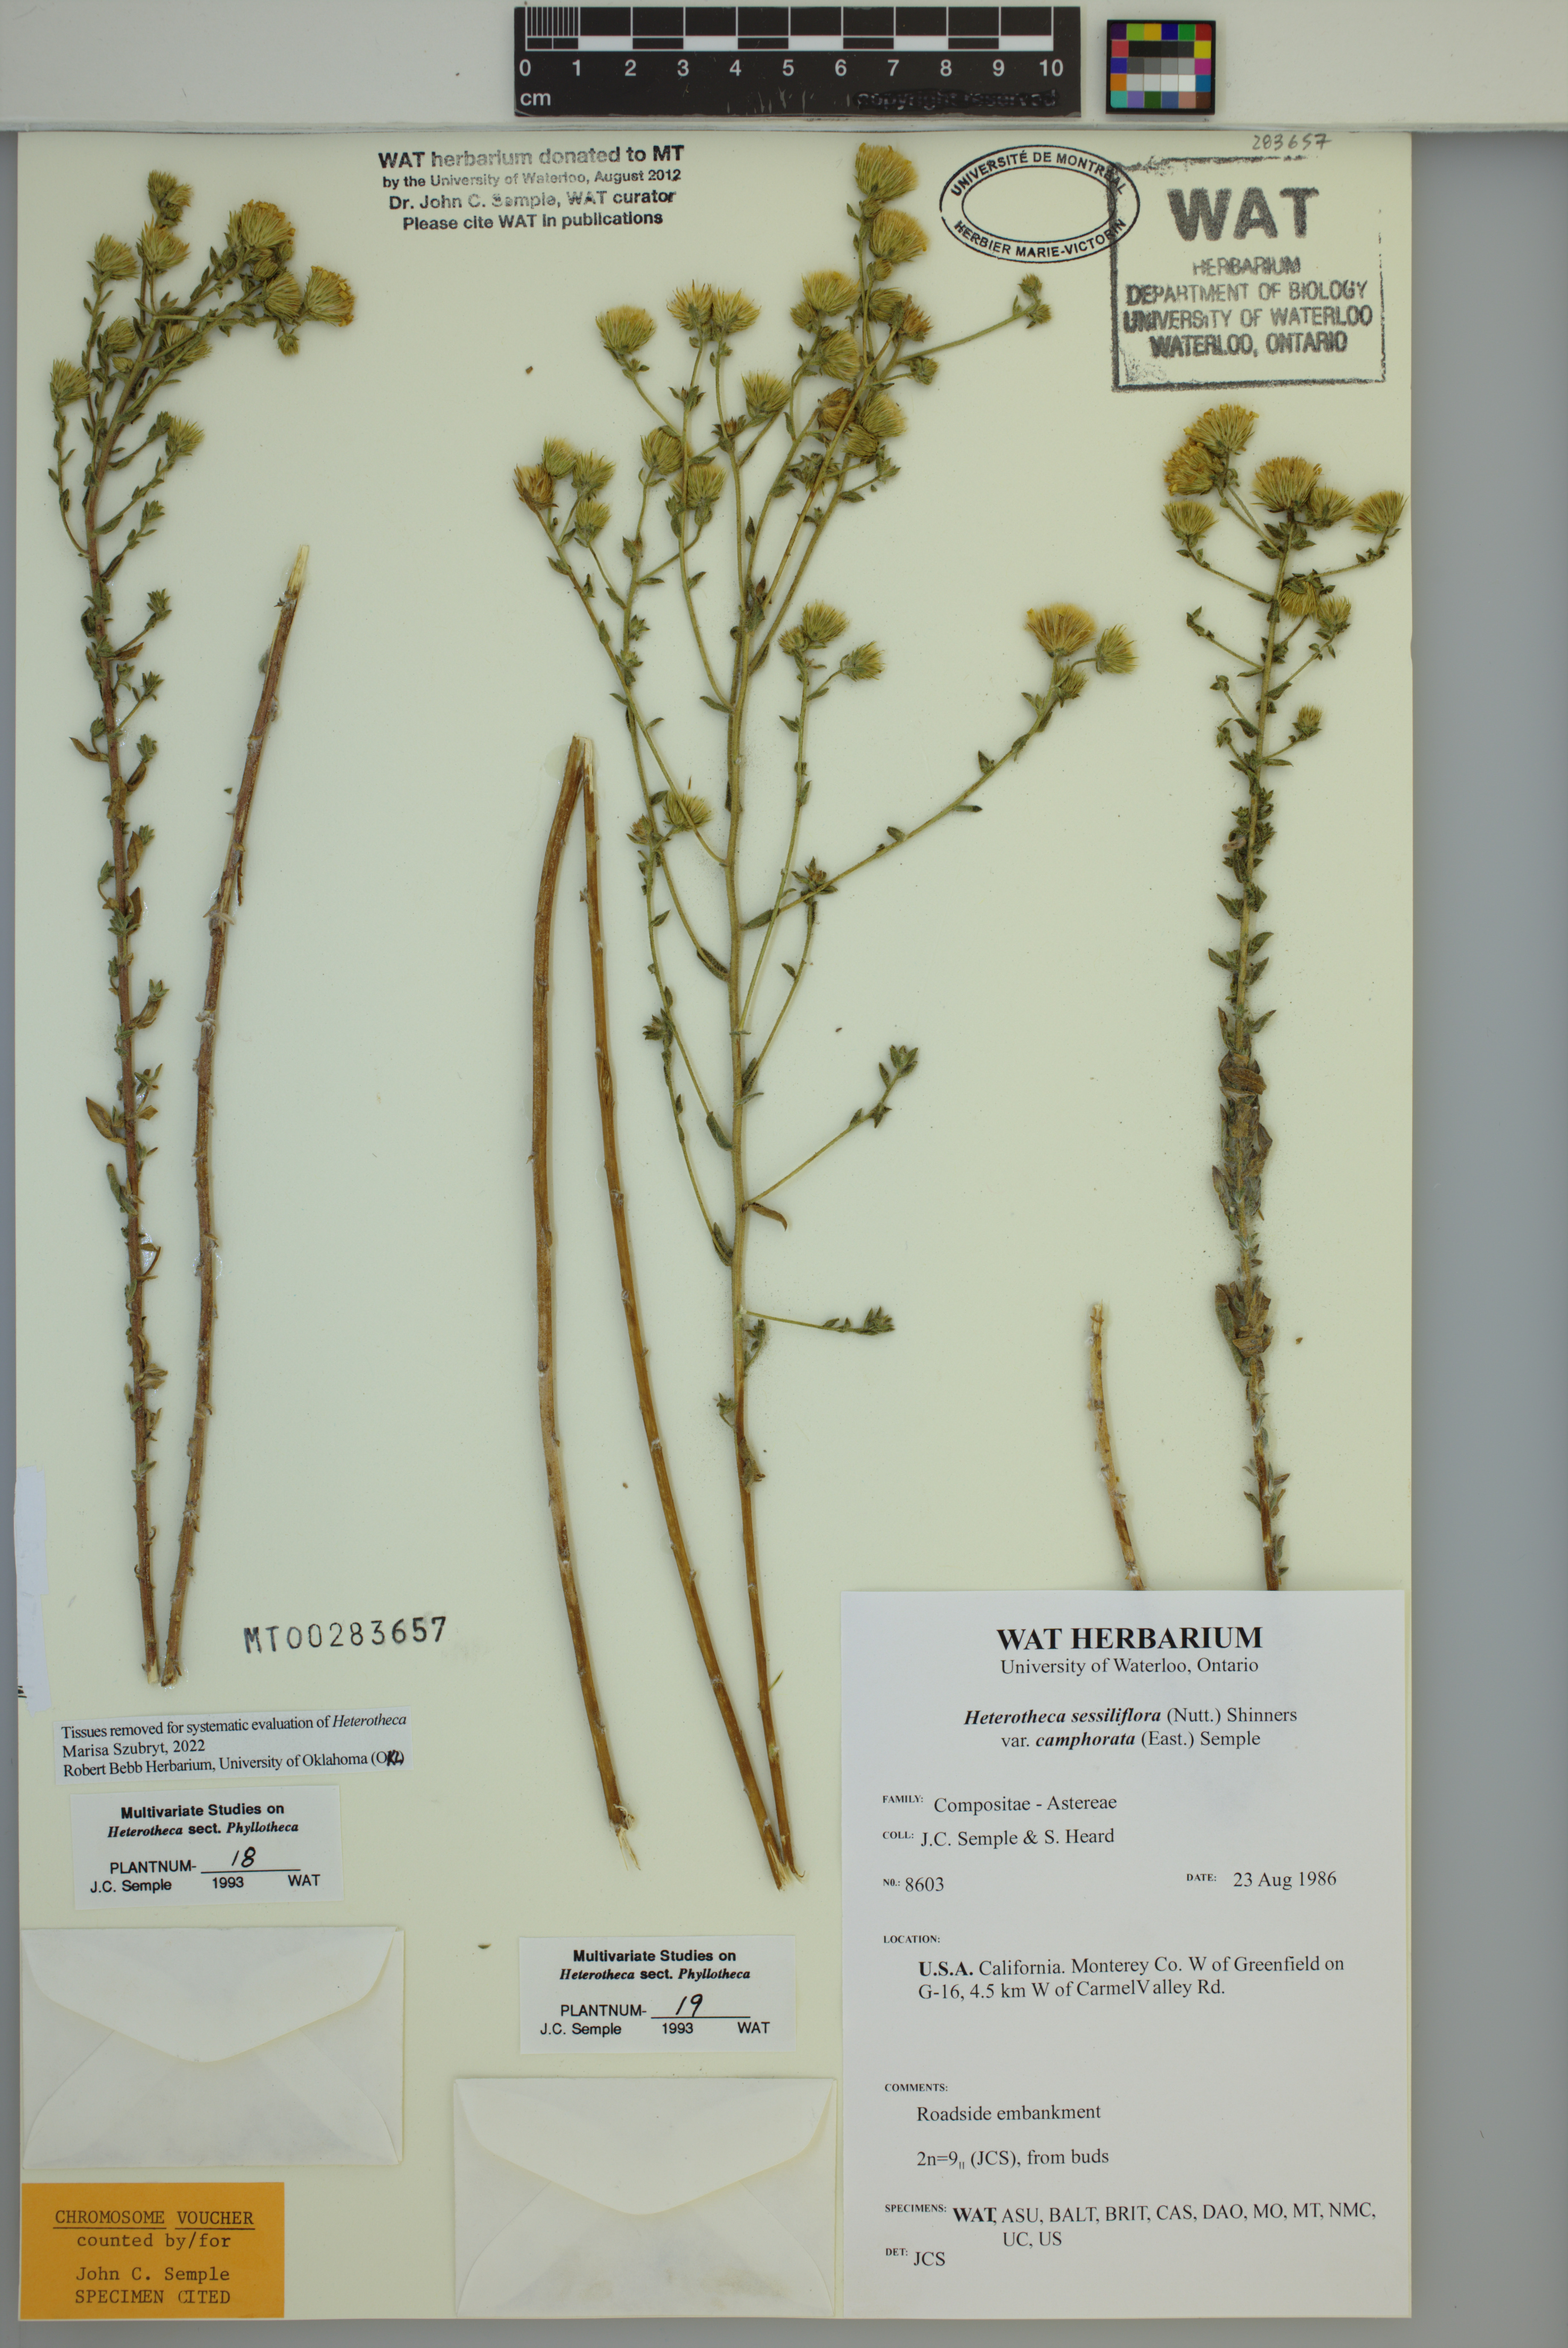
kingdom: Plantae
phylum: Tracheophyta
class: Magnoliopsida
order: Asterales
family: Asteraceae
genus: Heterotheca
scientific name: Heterotheca camphorata
